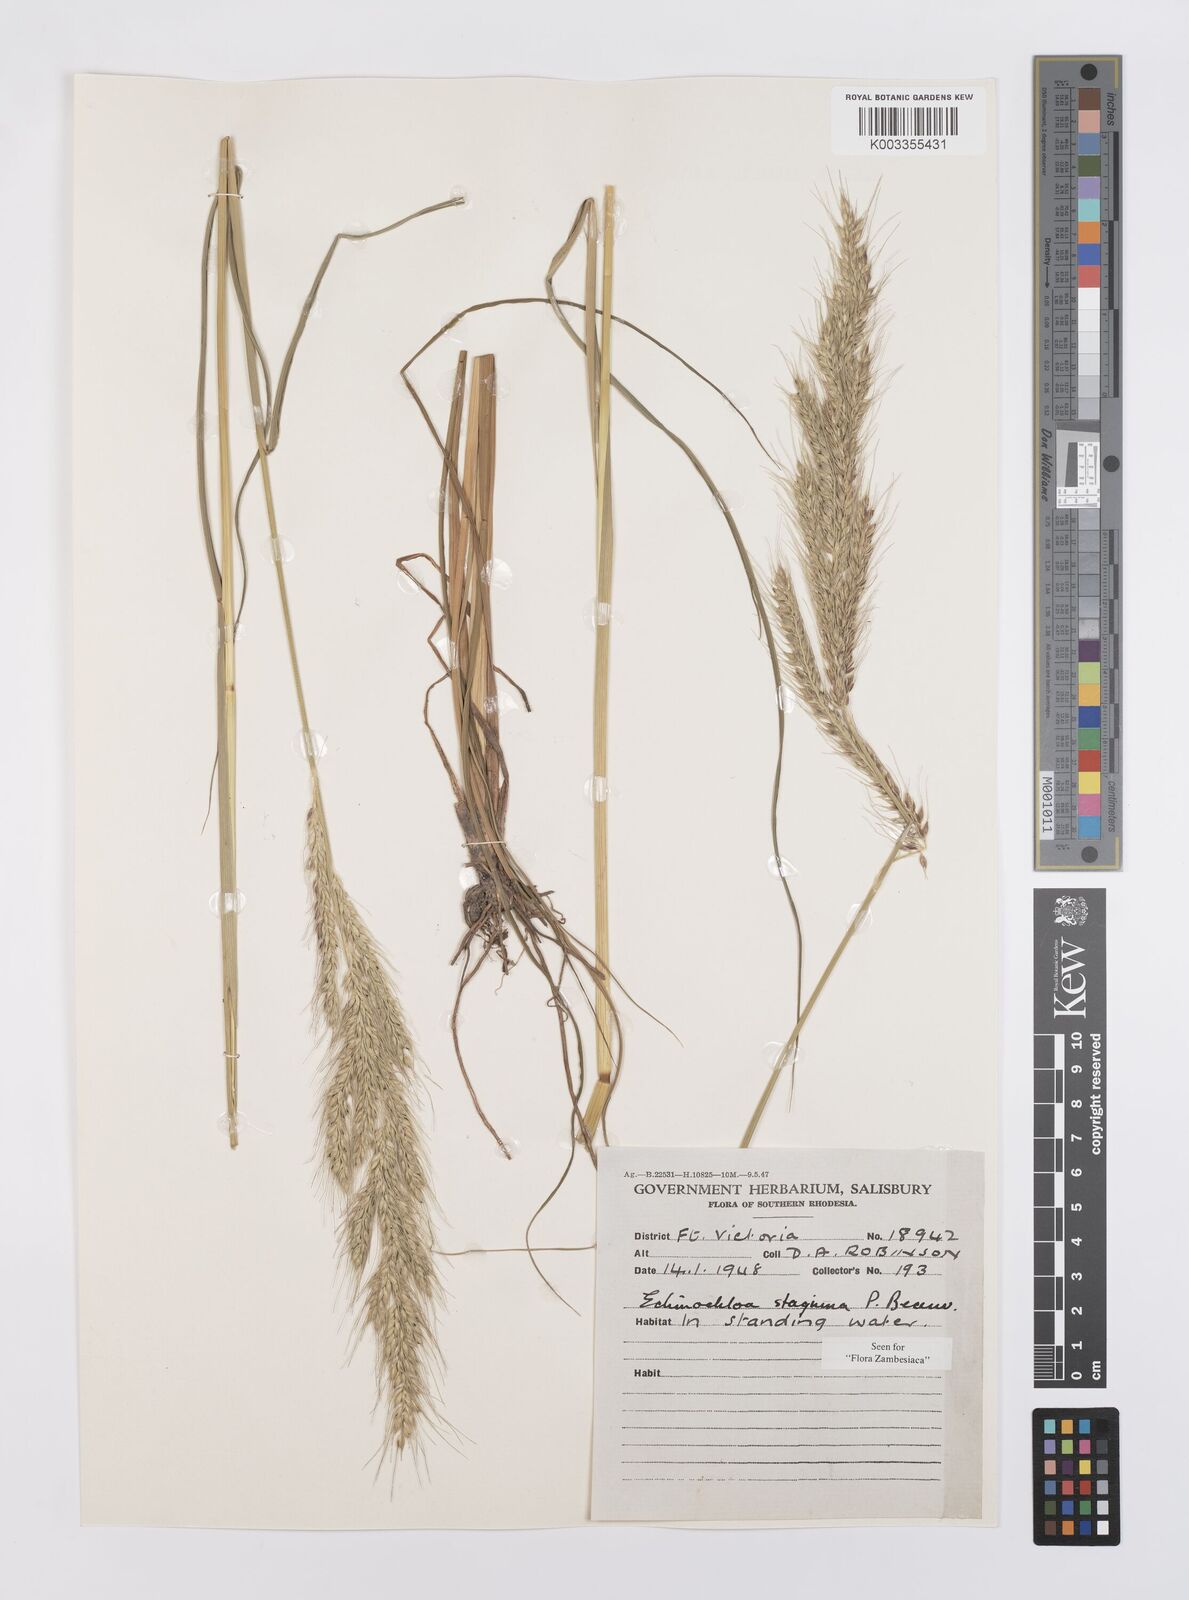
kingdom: Plantae
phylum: Tracheophyta
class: Liliopsida
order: Poales
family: Poaceae
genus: Echinochloa
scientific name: Echinochloa stagnina
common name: Burgu grass
